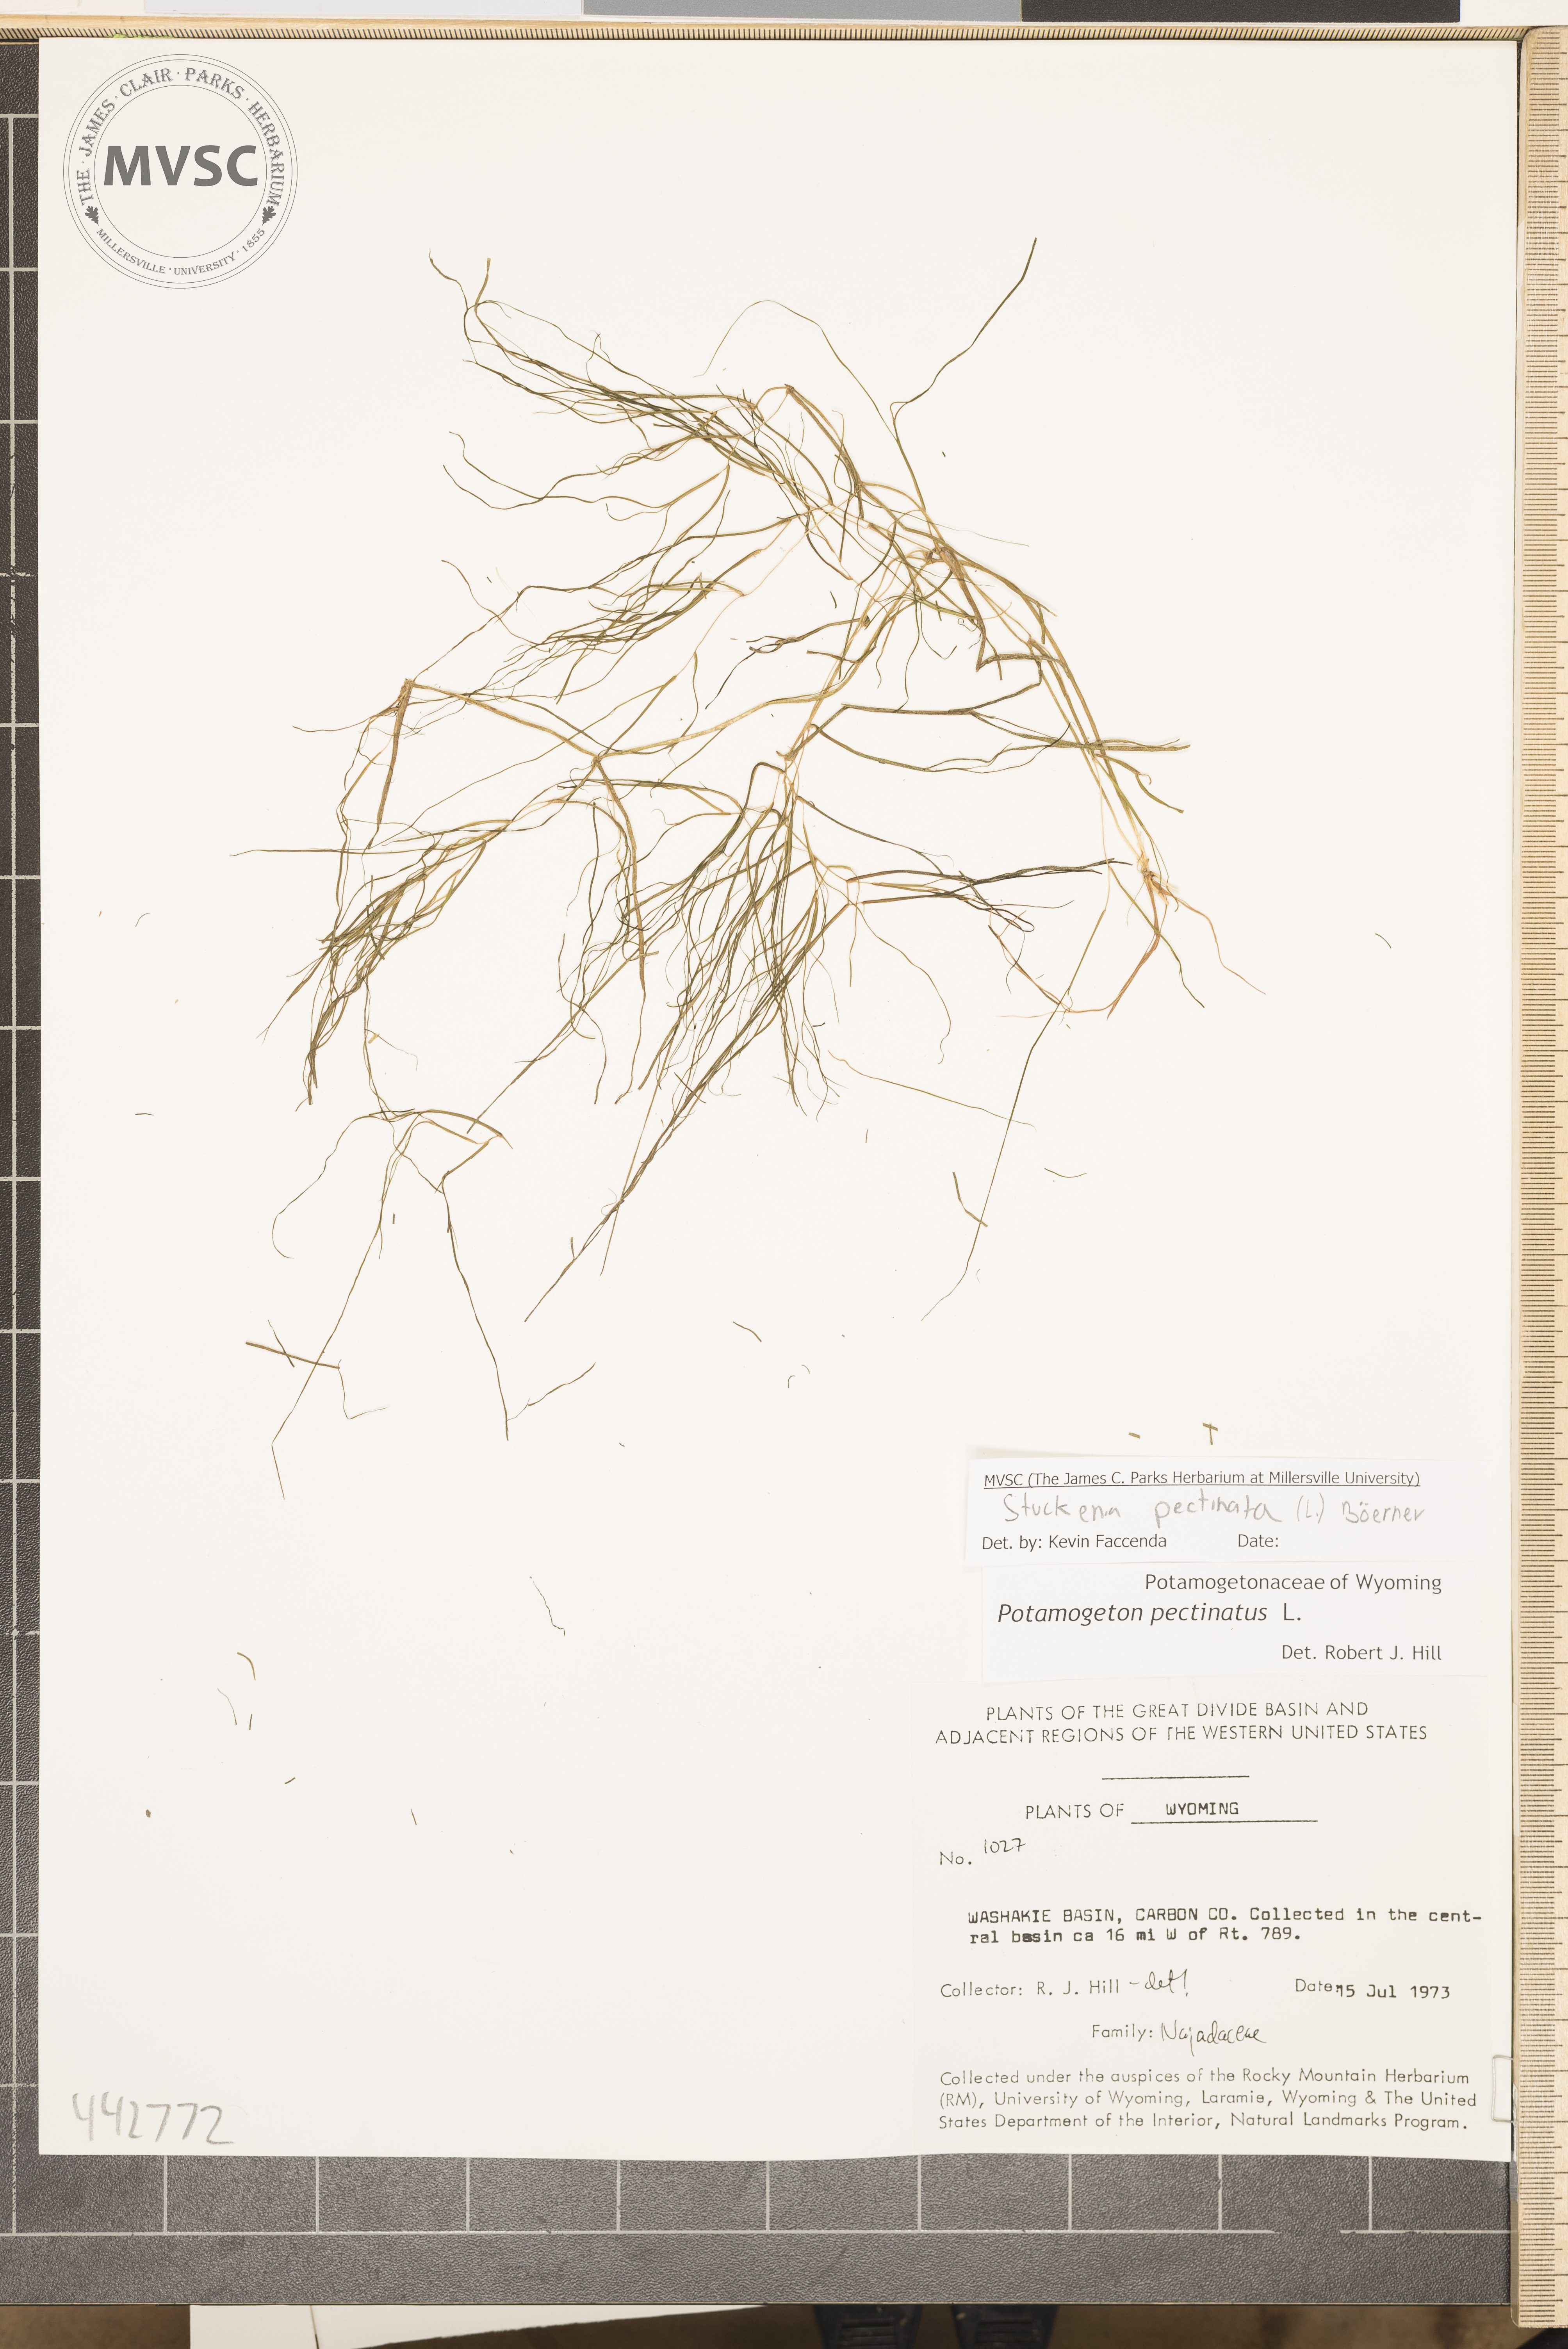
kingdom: Plantae
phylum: Tracheophyta
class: Liliopsida
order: Alismatales
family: Potamogetonaceae
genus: Stuckenia
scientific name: Stuckenia pectinata
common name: Sago pondweed
